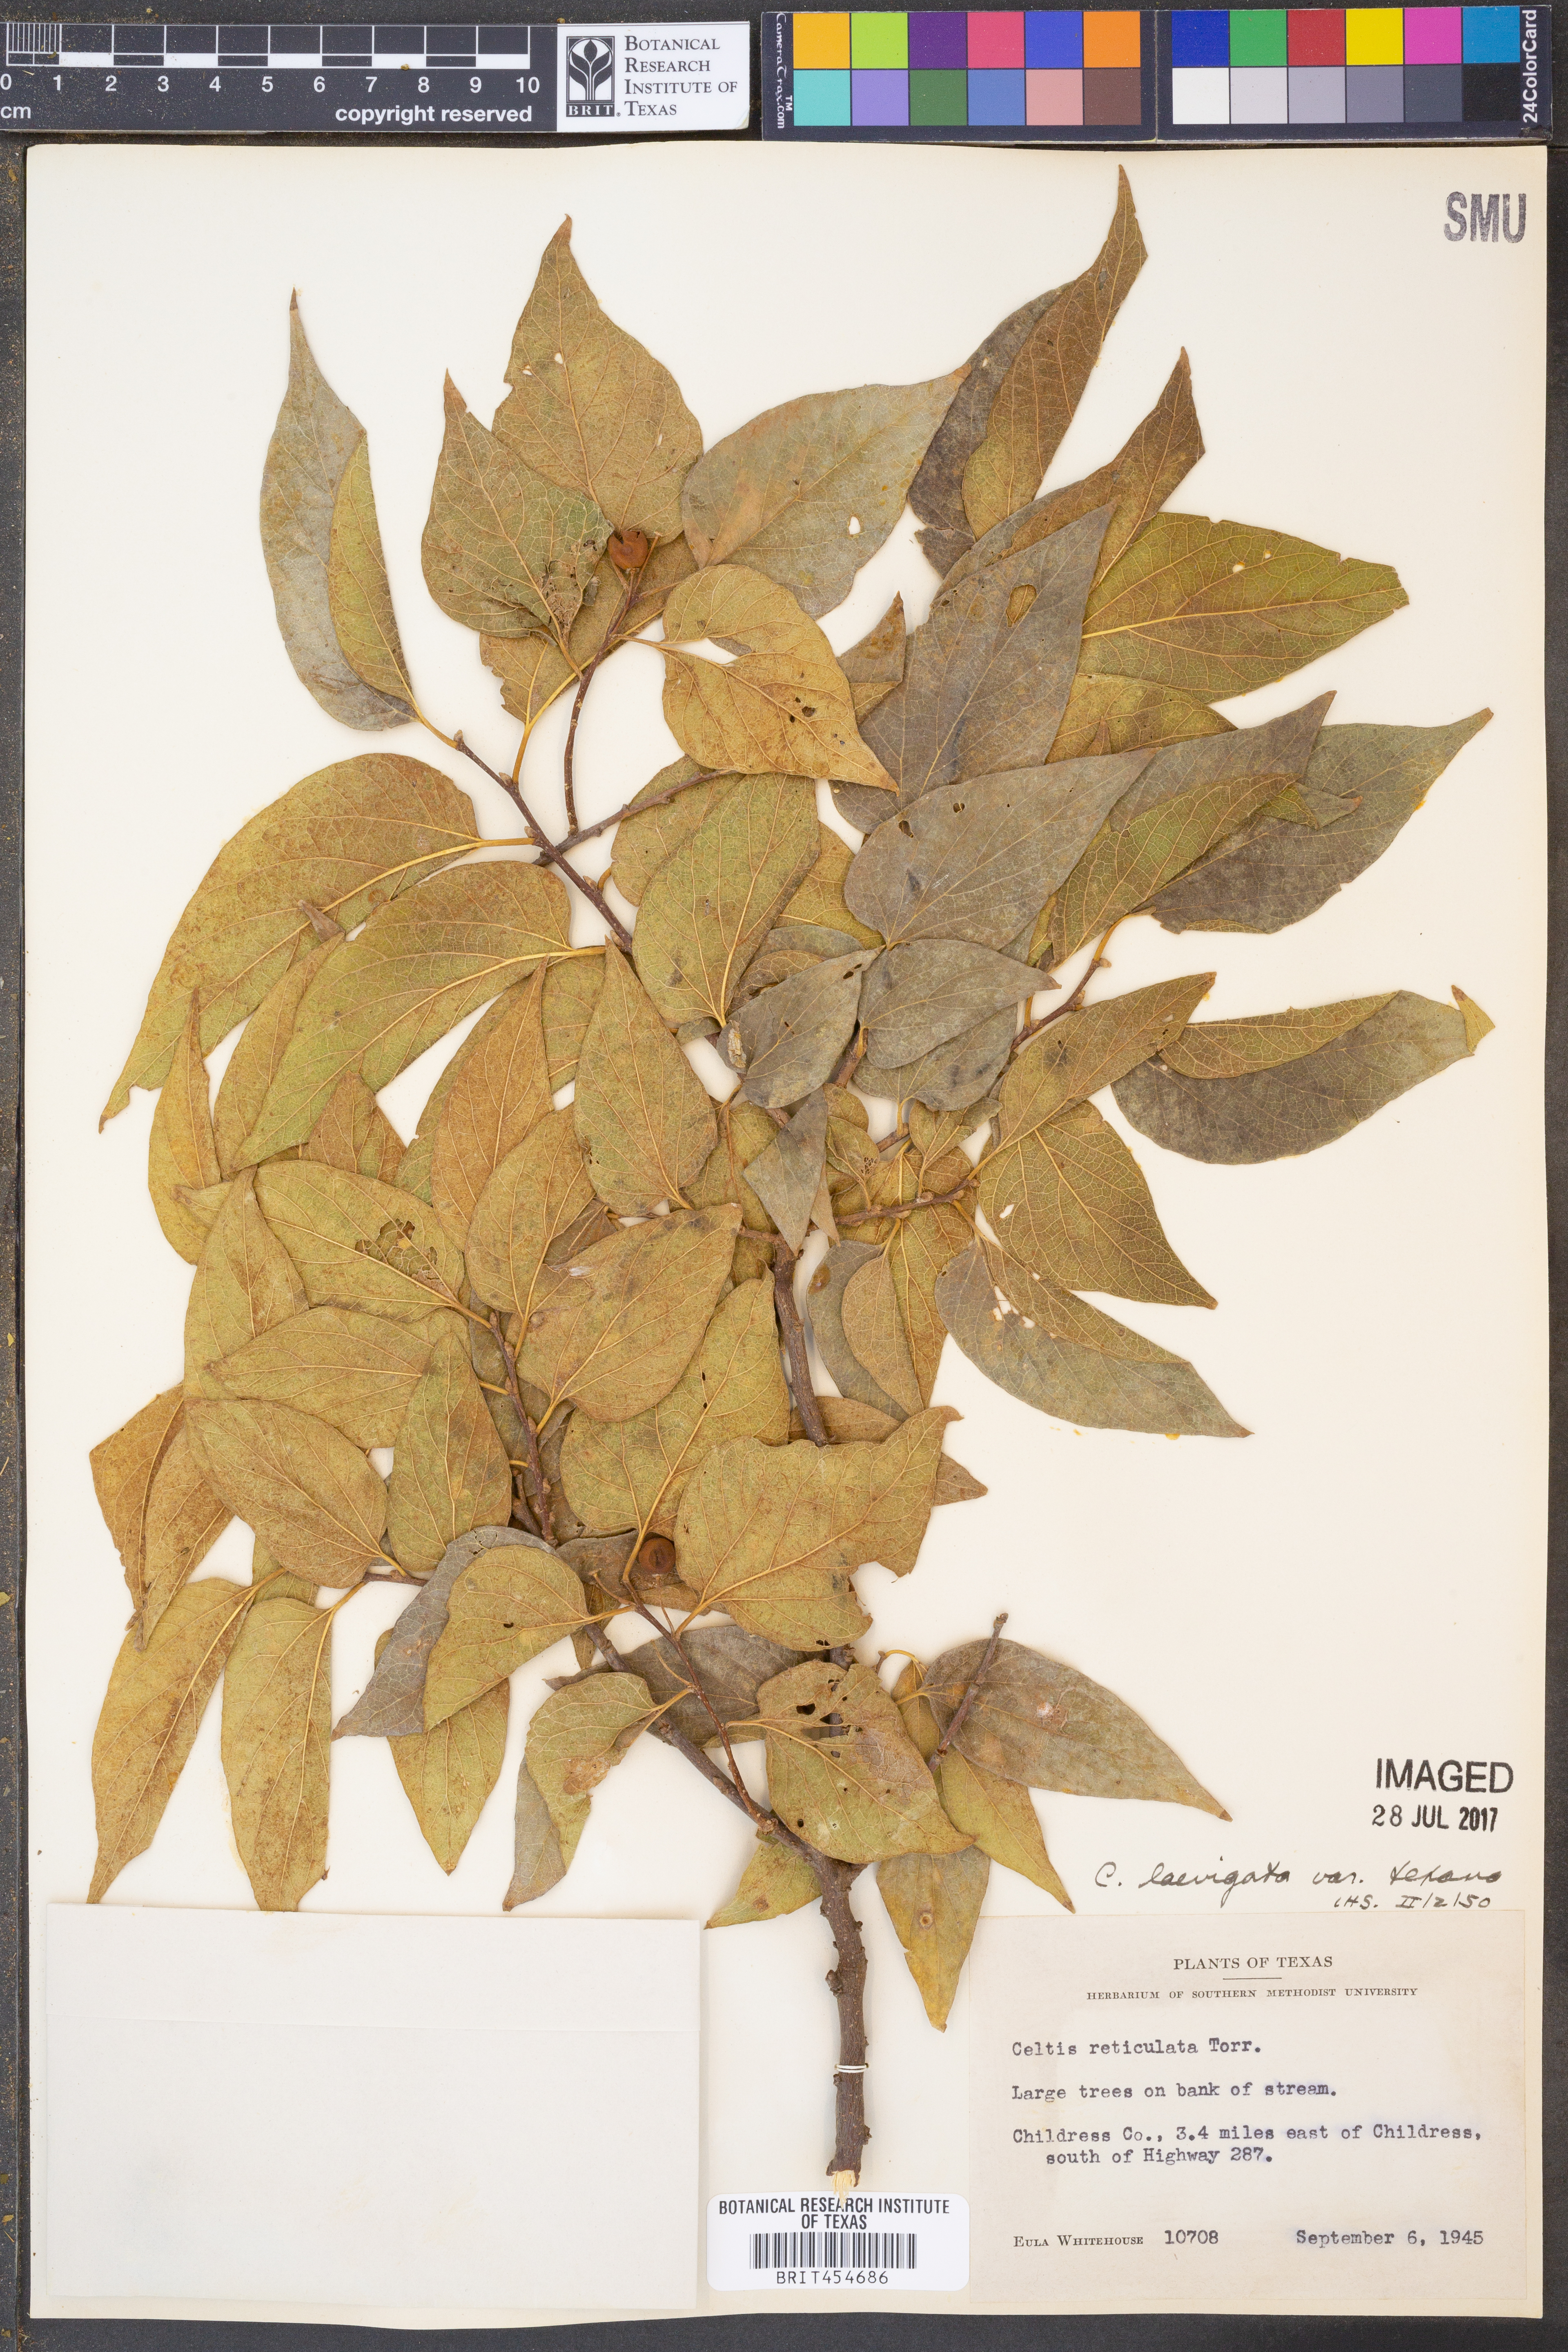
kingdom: Plantae
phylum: Tracheophyta
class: Magnoliopsida
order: Rosales
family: Cannabaceae
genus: Celtis
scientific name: Celtis laevigata
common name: Sugarberry
